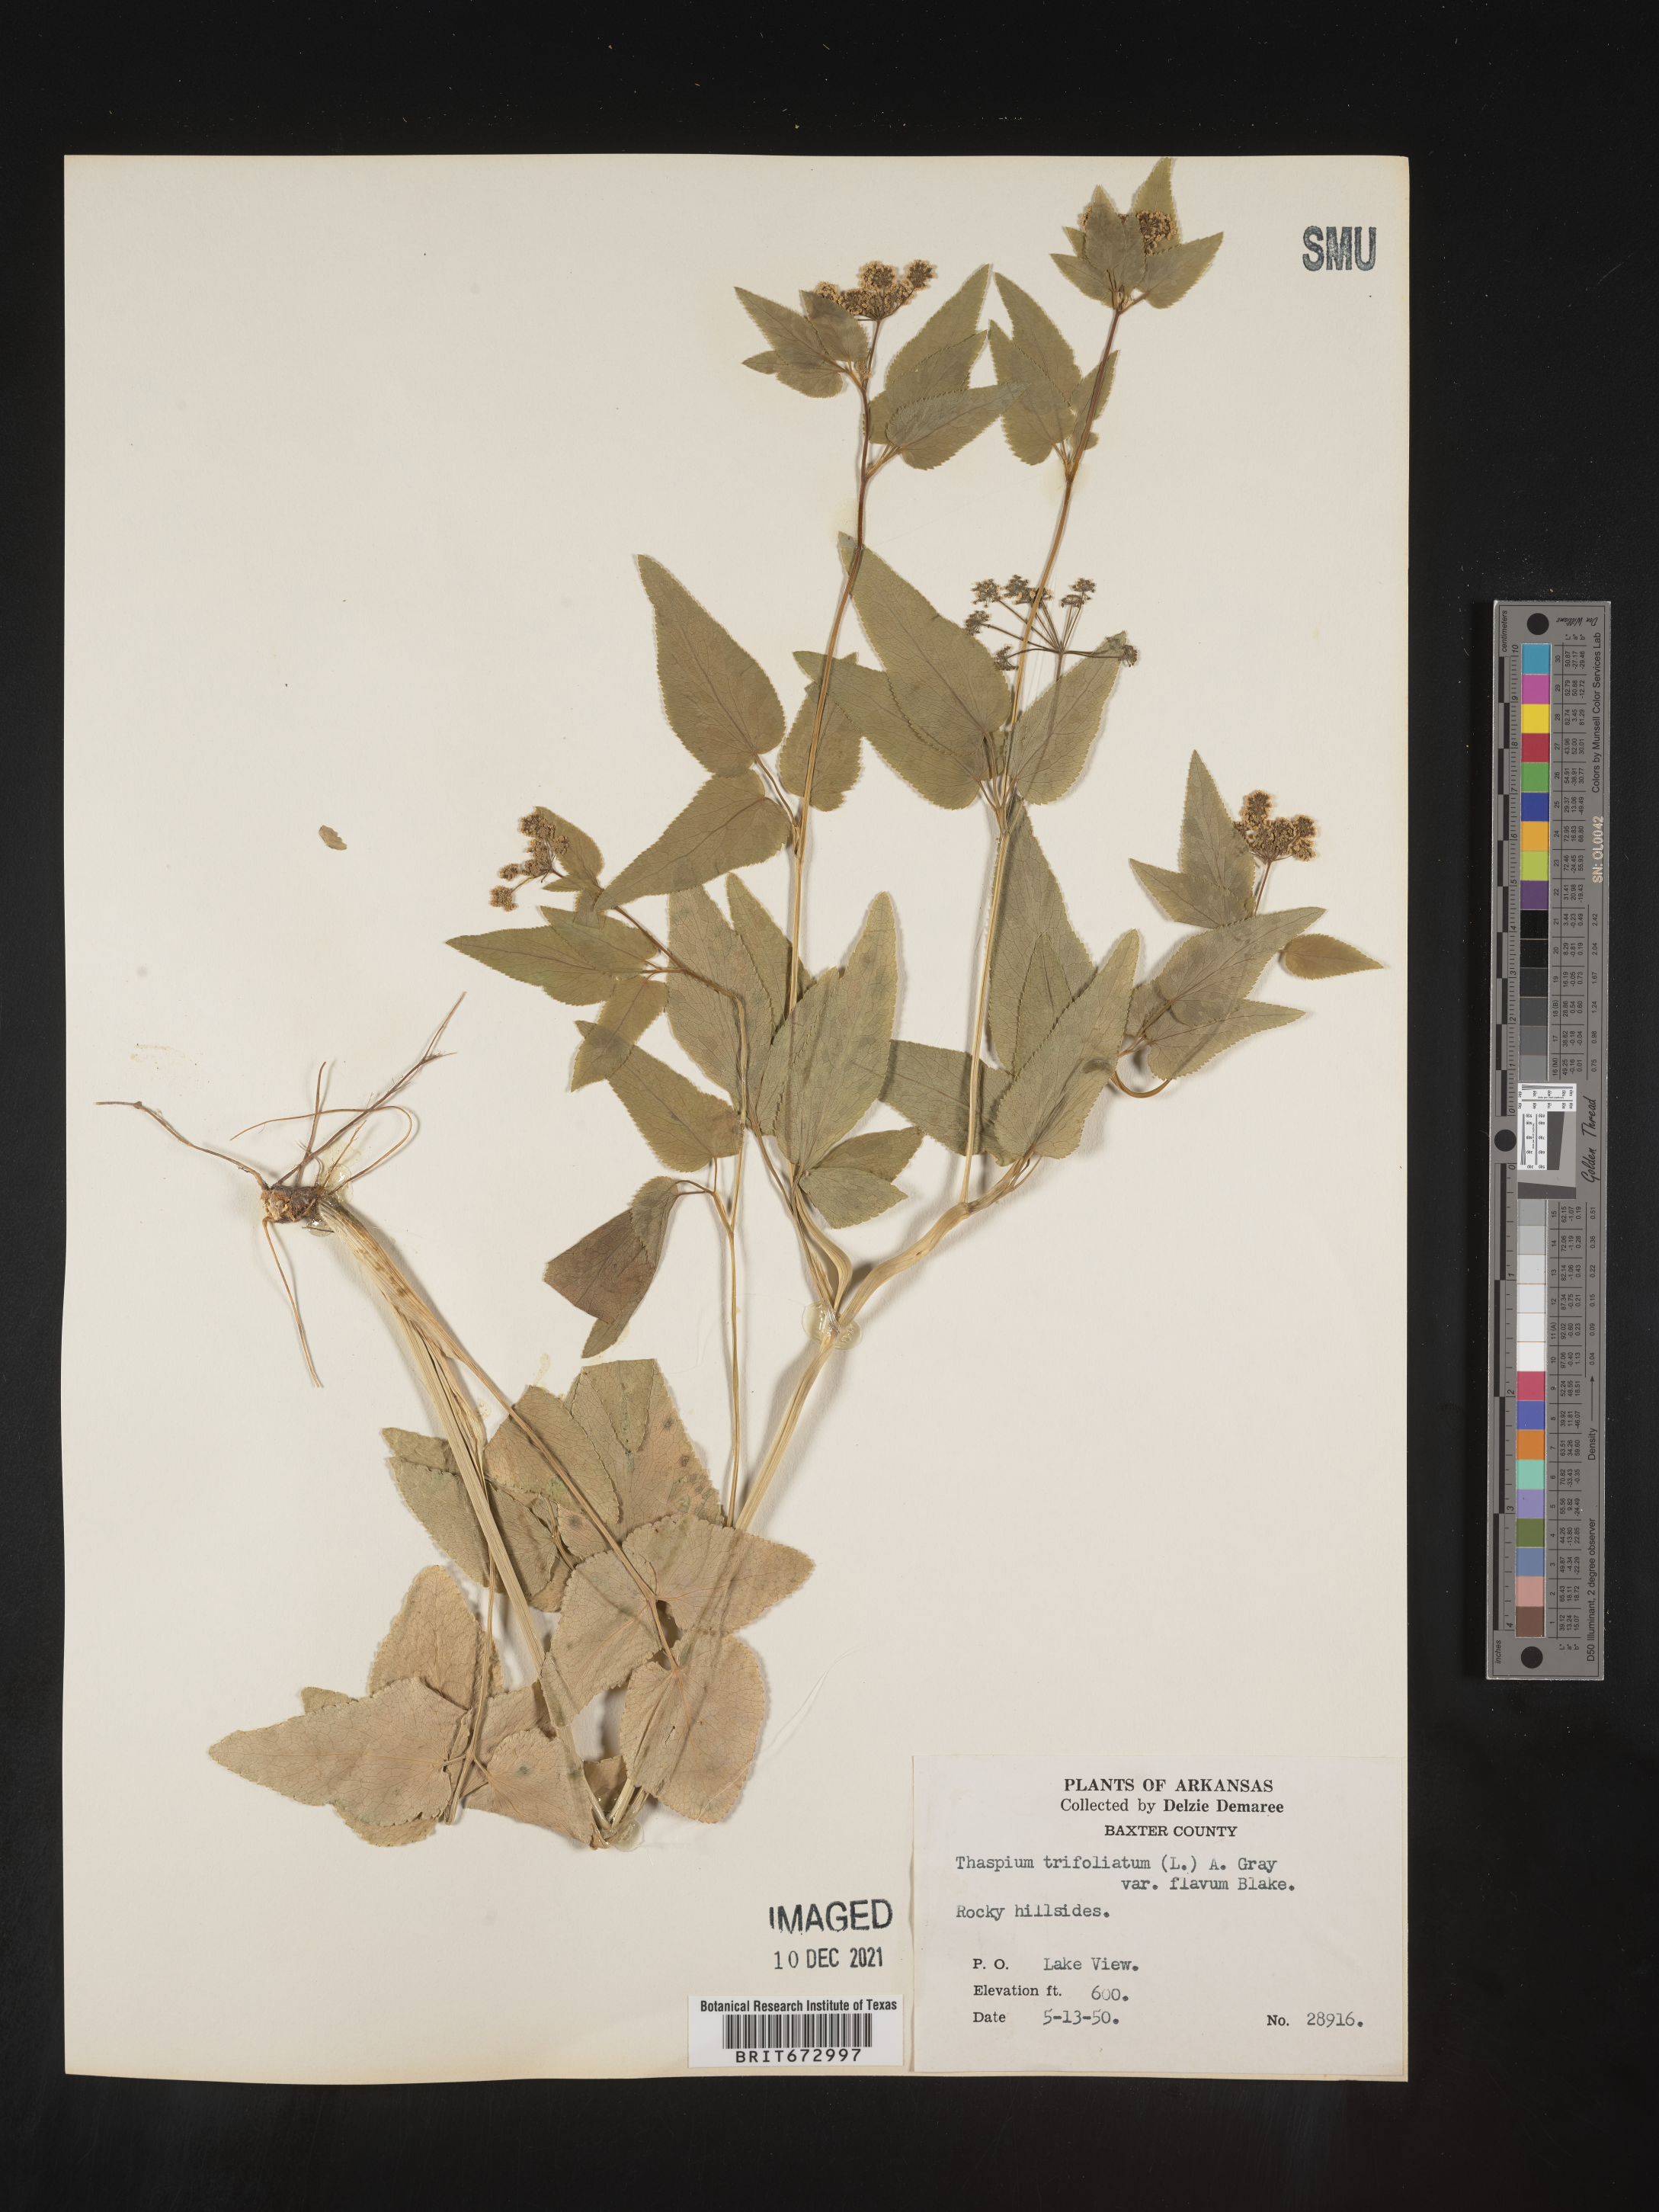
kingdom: Plantae
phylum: Tracheophyta
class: Magnoliopsida
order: Apiales
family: Apiaceae
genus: Thaspium
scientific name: Thaspium
